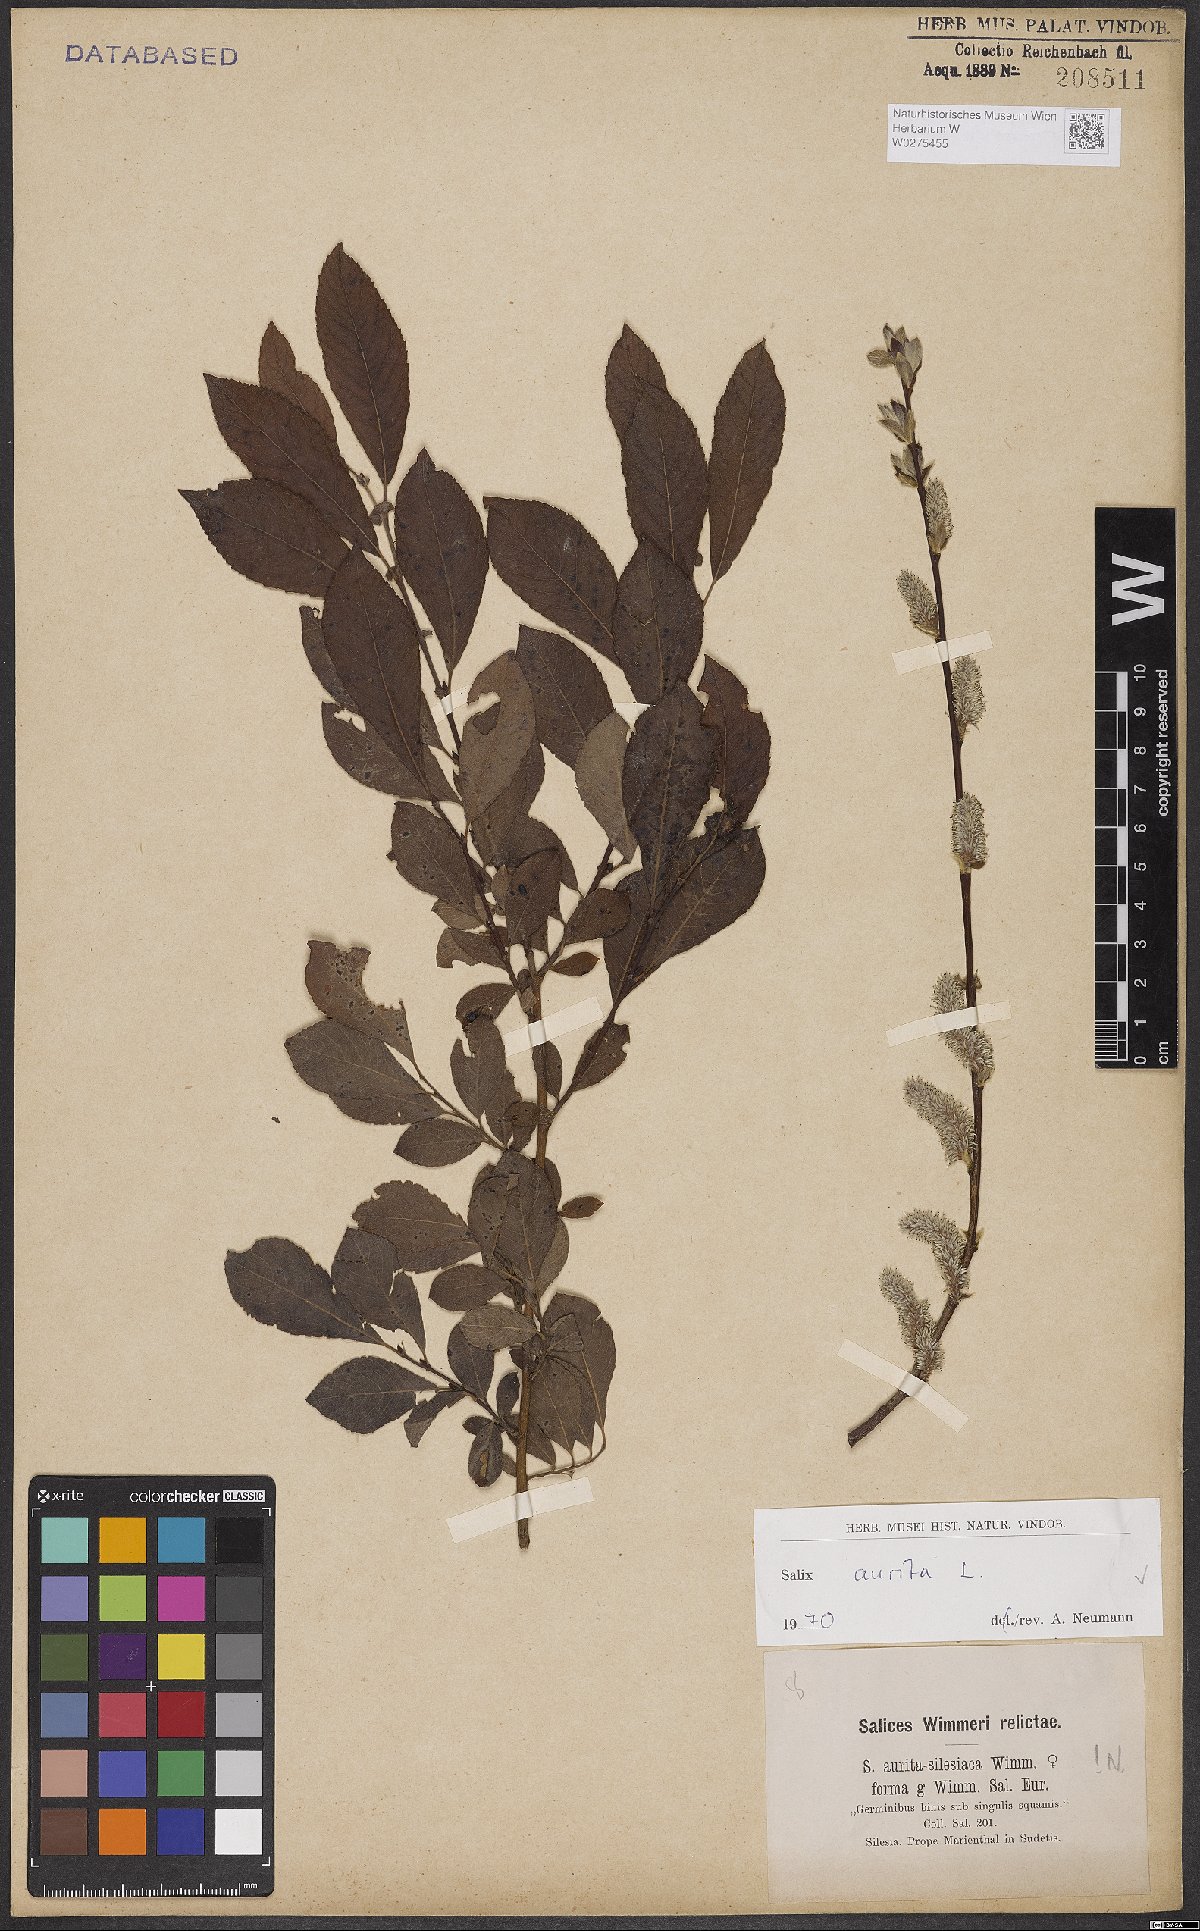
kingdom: Plantae
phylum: Tracheophyta
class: Magnoliopsida
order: Malpighiales
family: Salicaceae
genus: Salix
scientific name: Salix aurita
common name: Eared willow
